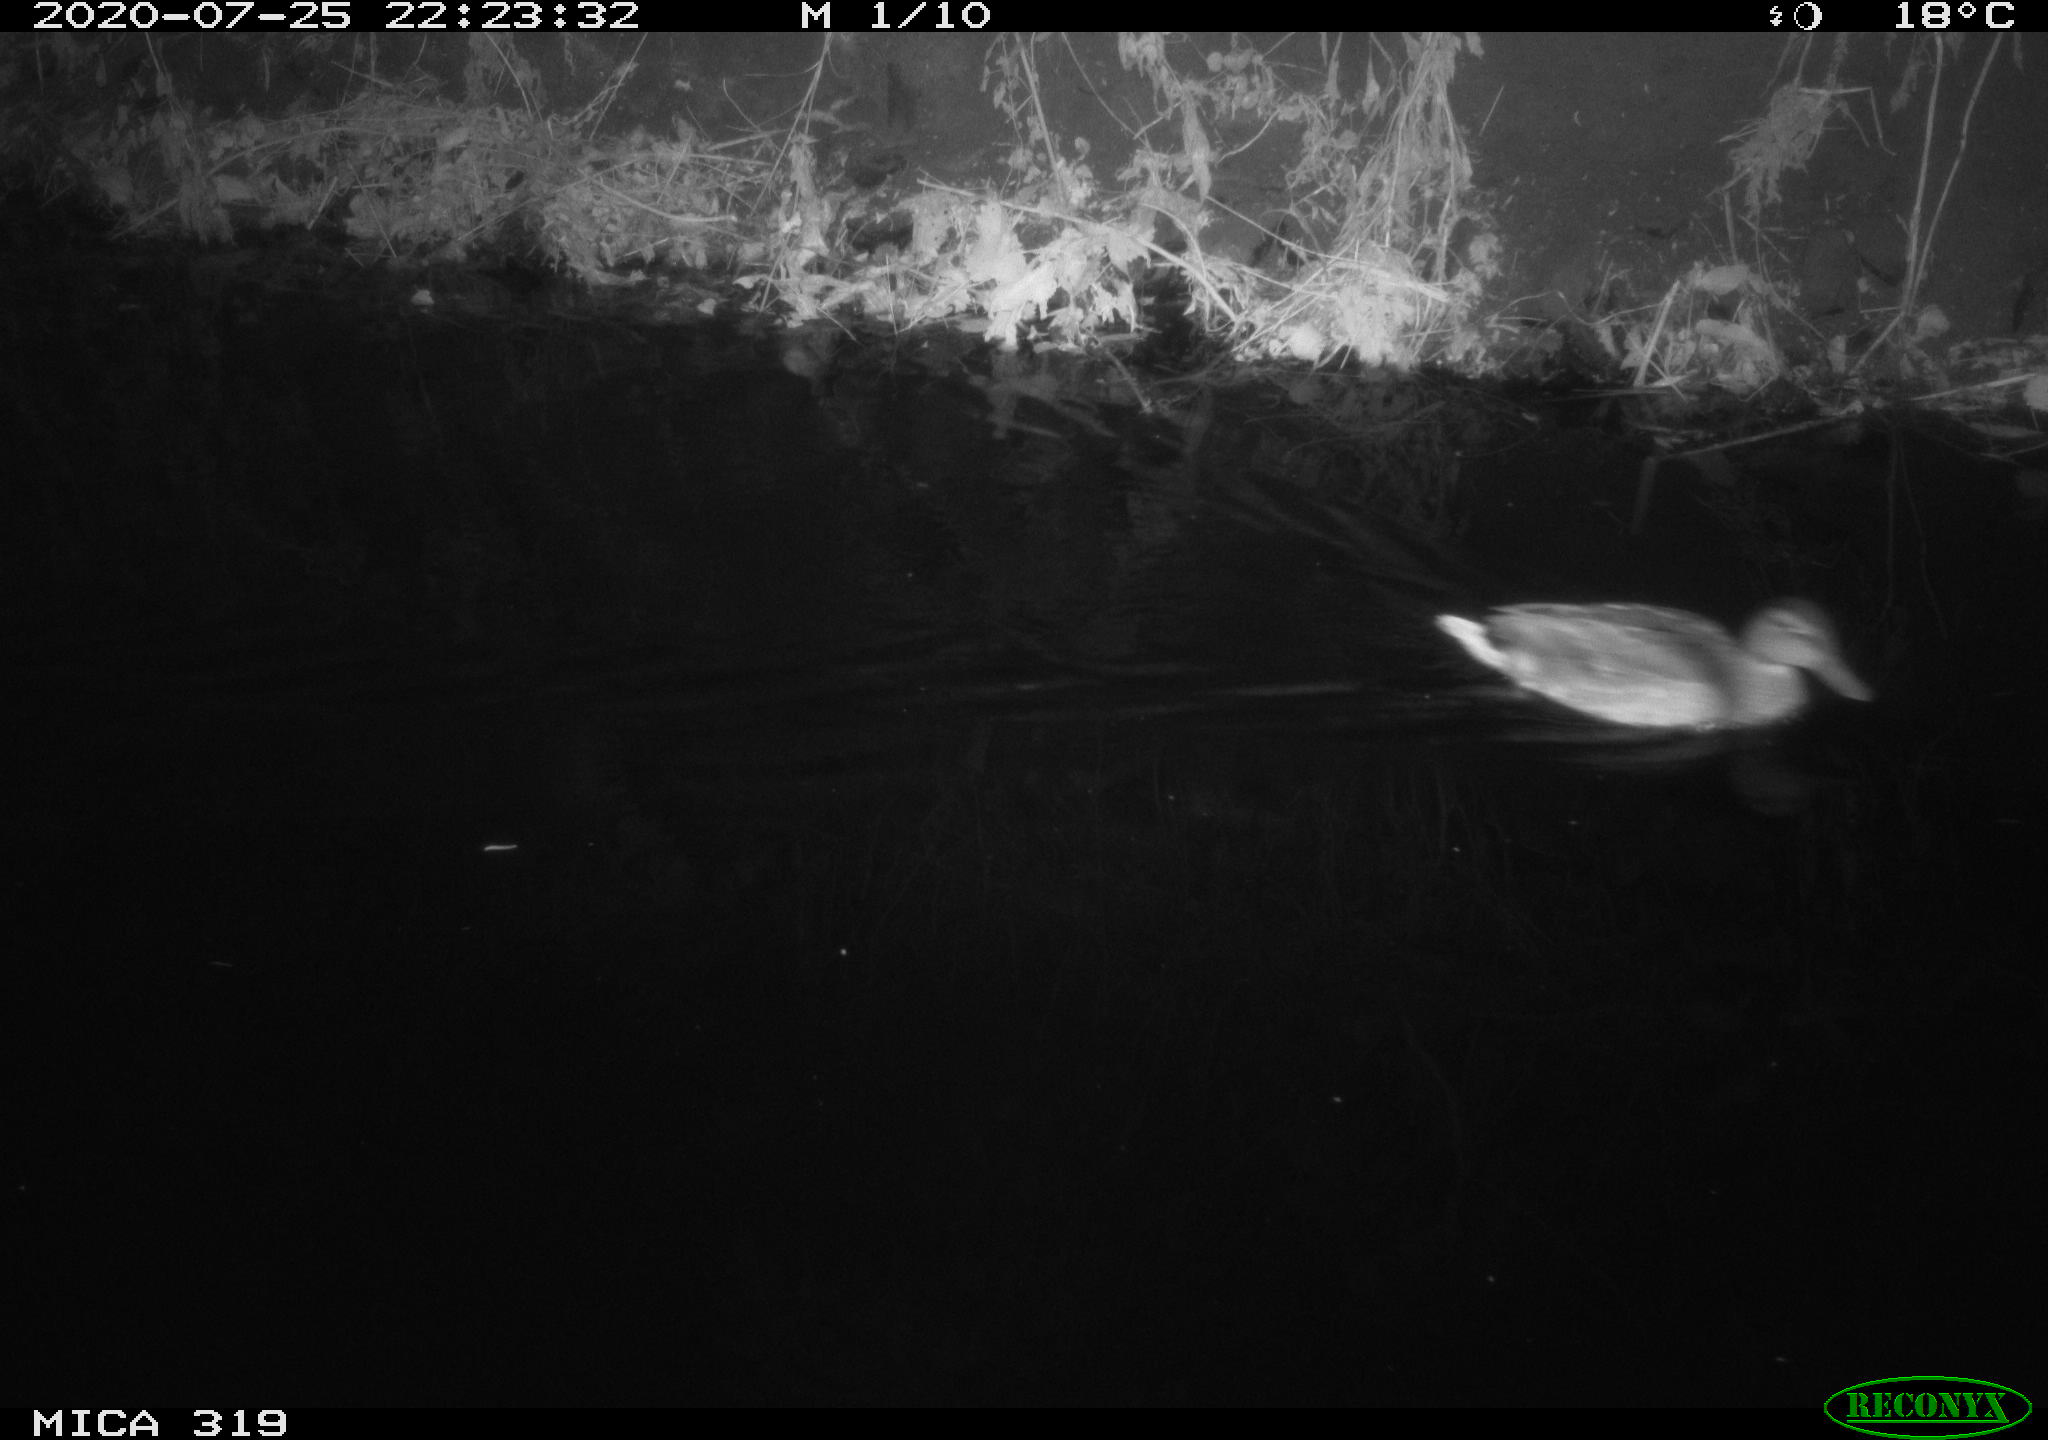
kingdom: Animalia
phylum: Chordata
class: Aves
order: Anseriformes
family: Anatidae
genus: Anas
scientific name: Anas platyrhynchos
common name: Mallard
